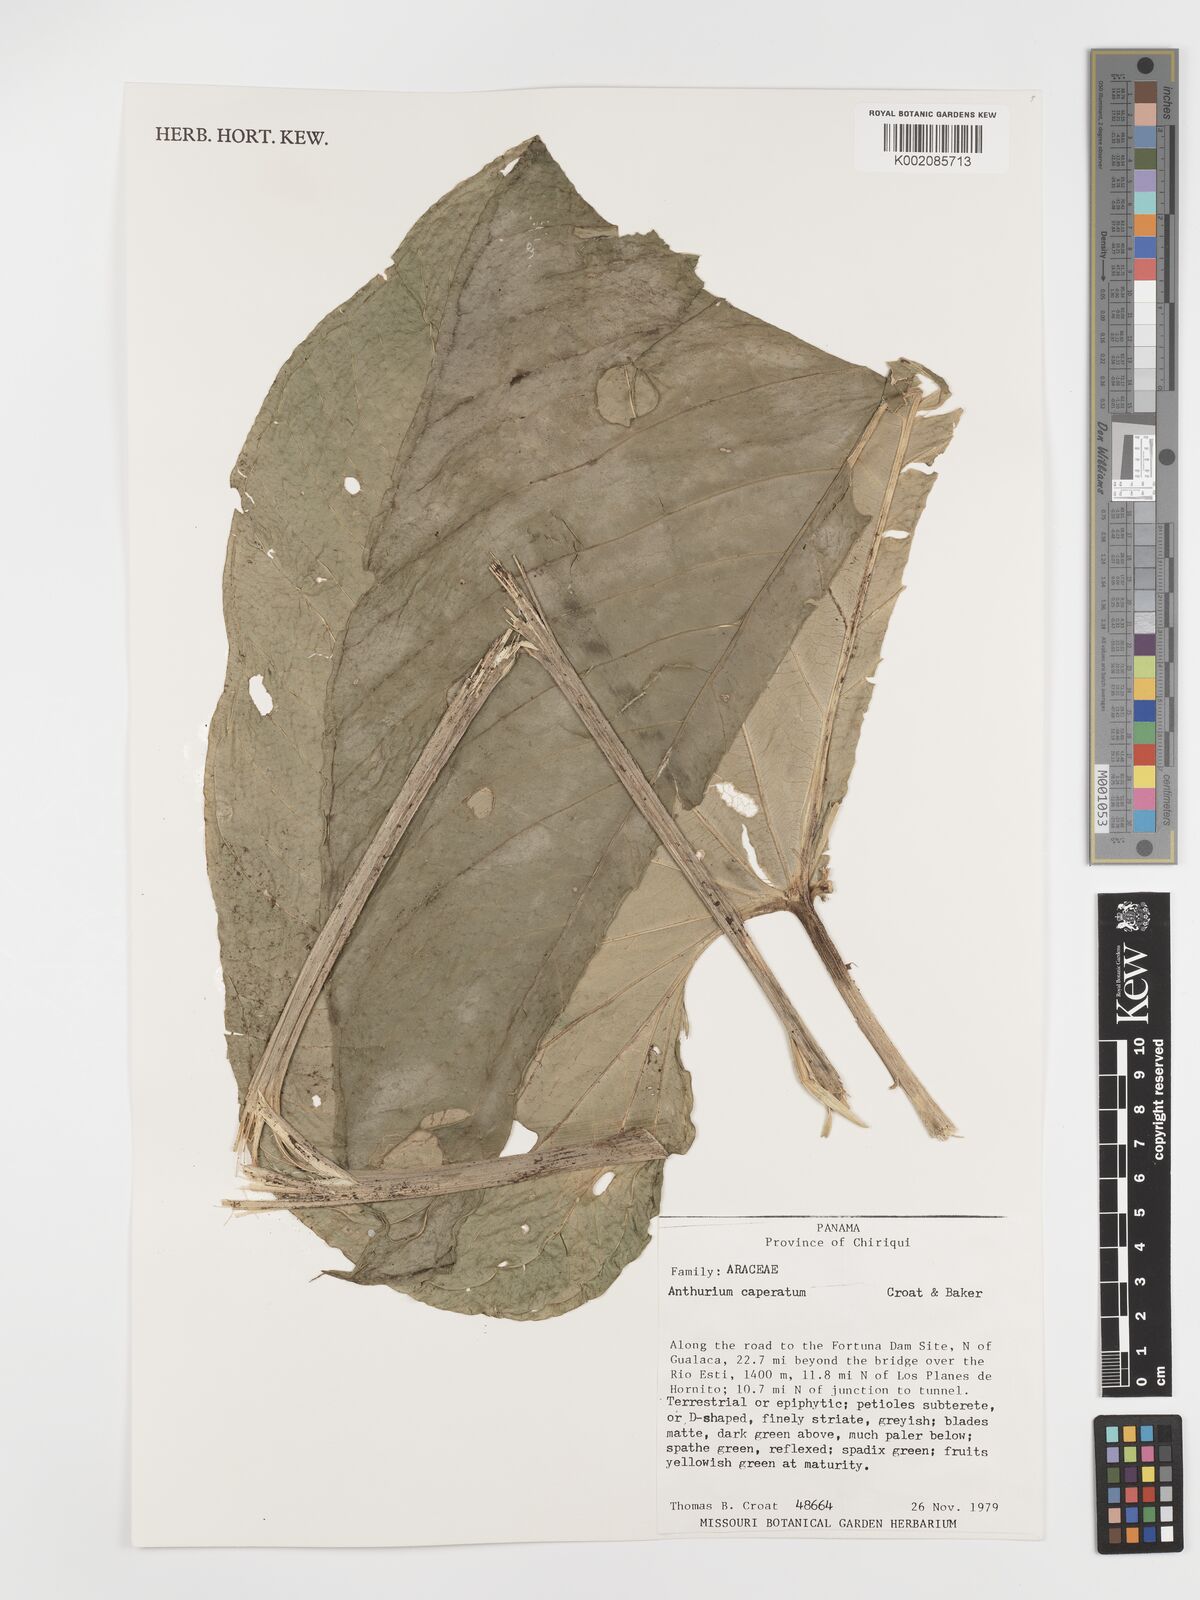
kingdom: Plantae
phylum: Tracheophyta
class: Liliopsida
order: Alismatales
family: Araceae
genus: Anthurium
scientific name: Anthurium caperatum
